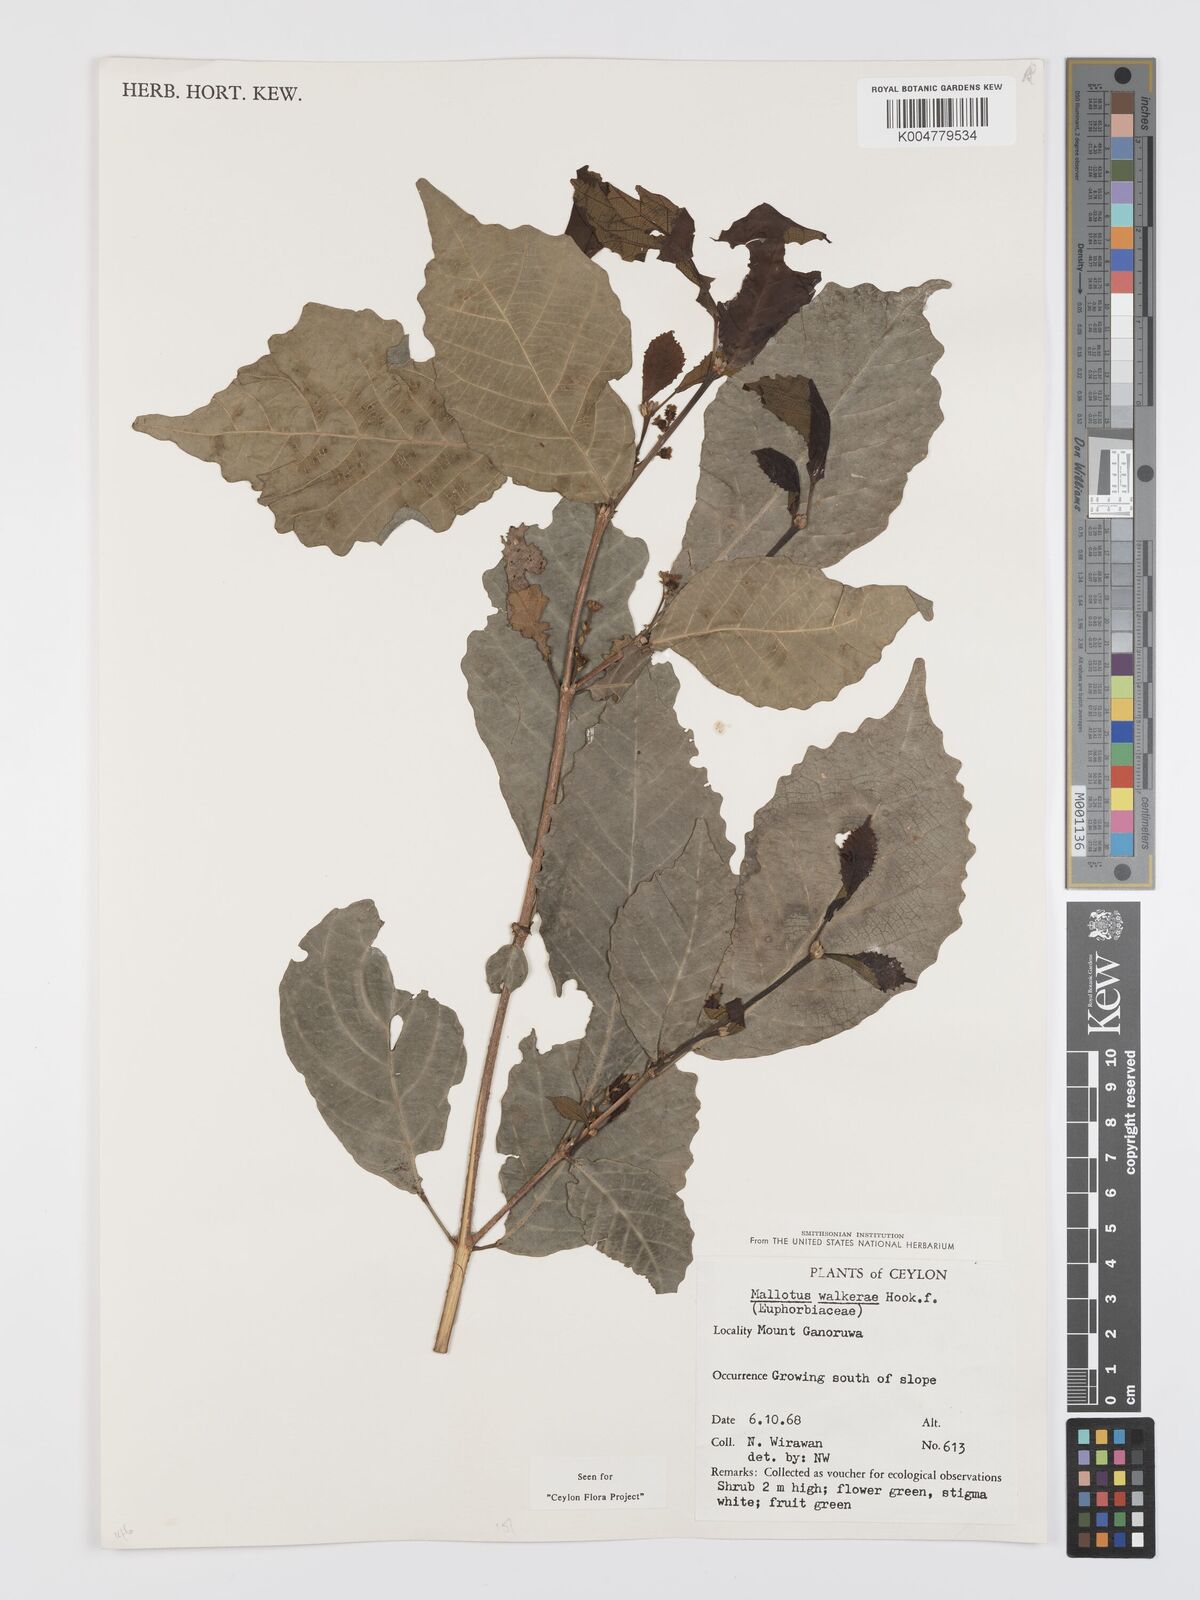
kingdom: Plantae
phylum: Tracheophyta
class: Magnoliopsida
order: Malpighiales
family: Euphorbiaceae
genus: Mallotus
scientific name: Mallotus resinosus
